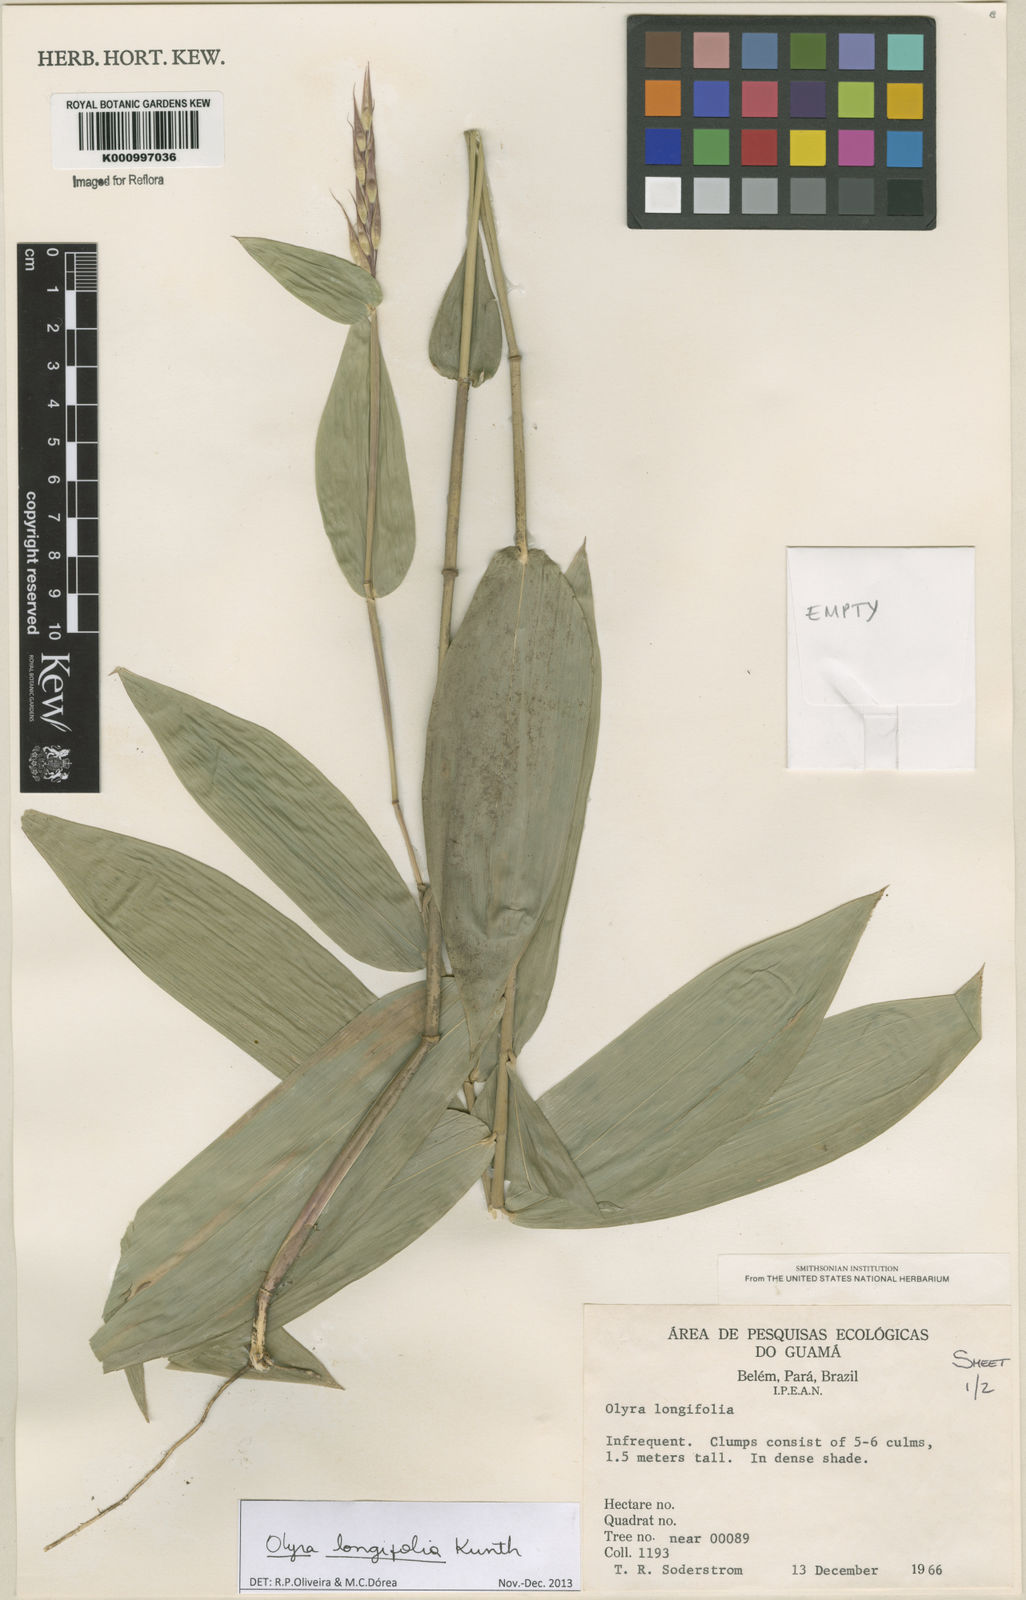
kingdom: Plantae
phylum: Tracheophyta
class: Liliopsida
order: Poales
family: Poaceae
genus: Olyra
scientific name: Olyra longifolia
